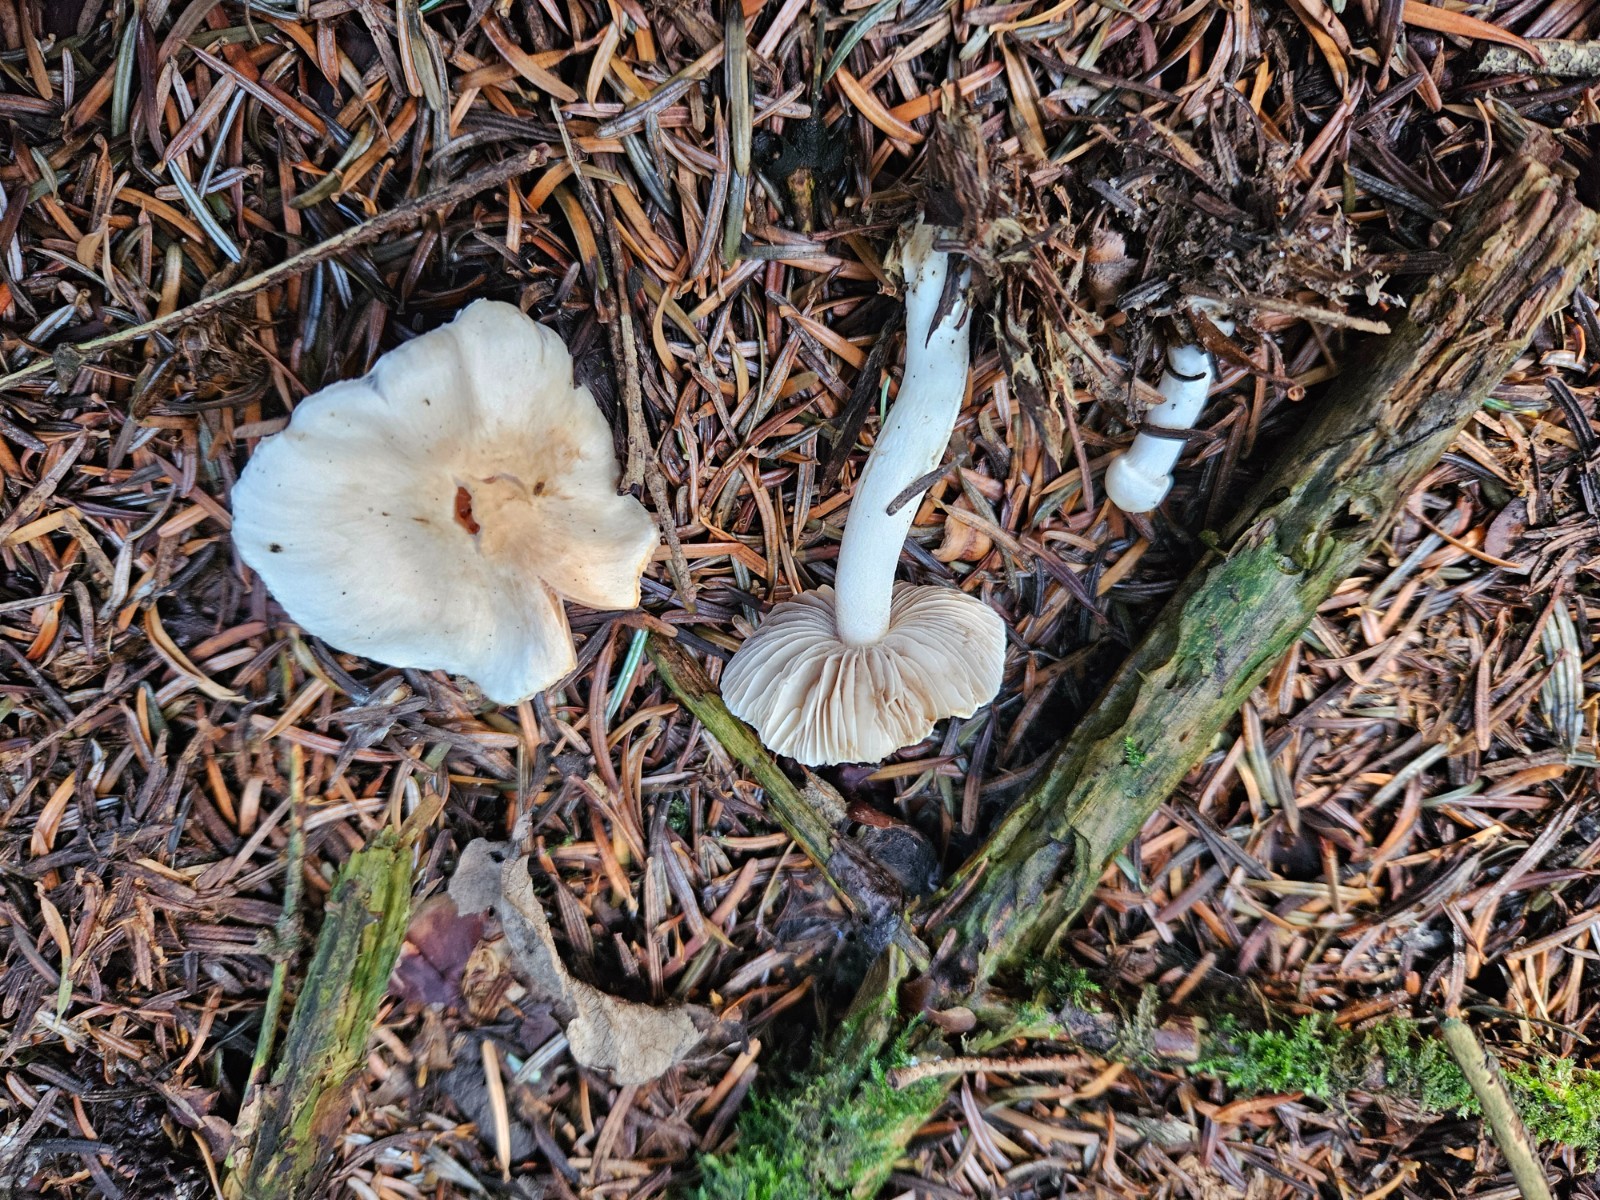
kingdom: Fungi
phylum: Basidiomycota
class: Agaricomycetes
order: Agaricales
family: Inocybaceae
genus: Inocybe
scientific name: Inocybe
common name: trævlhat
